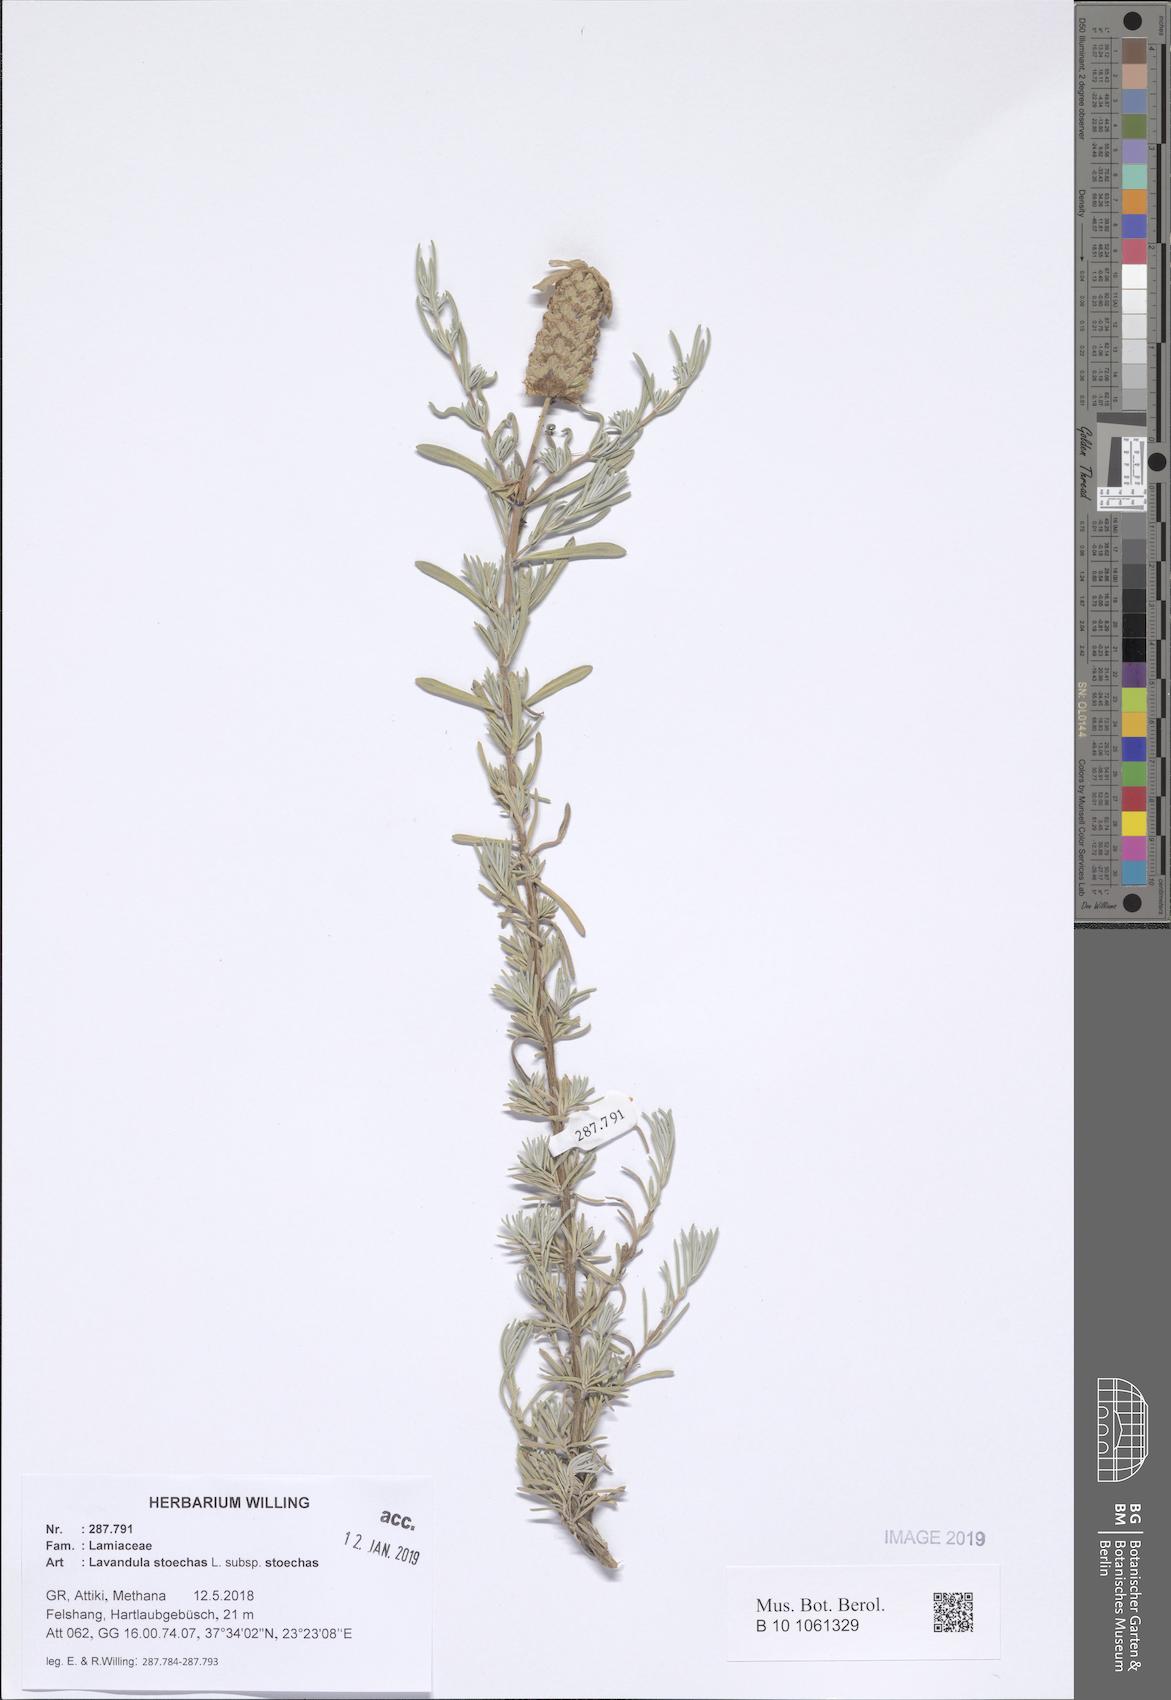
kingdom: Plantae
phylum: Tracheophyta
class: Magnoliopsida
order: Lamiales
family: Lamiaceae
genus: Lavandula
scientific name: Lavandula stoechas
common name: French lavender
